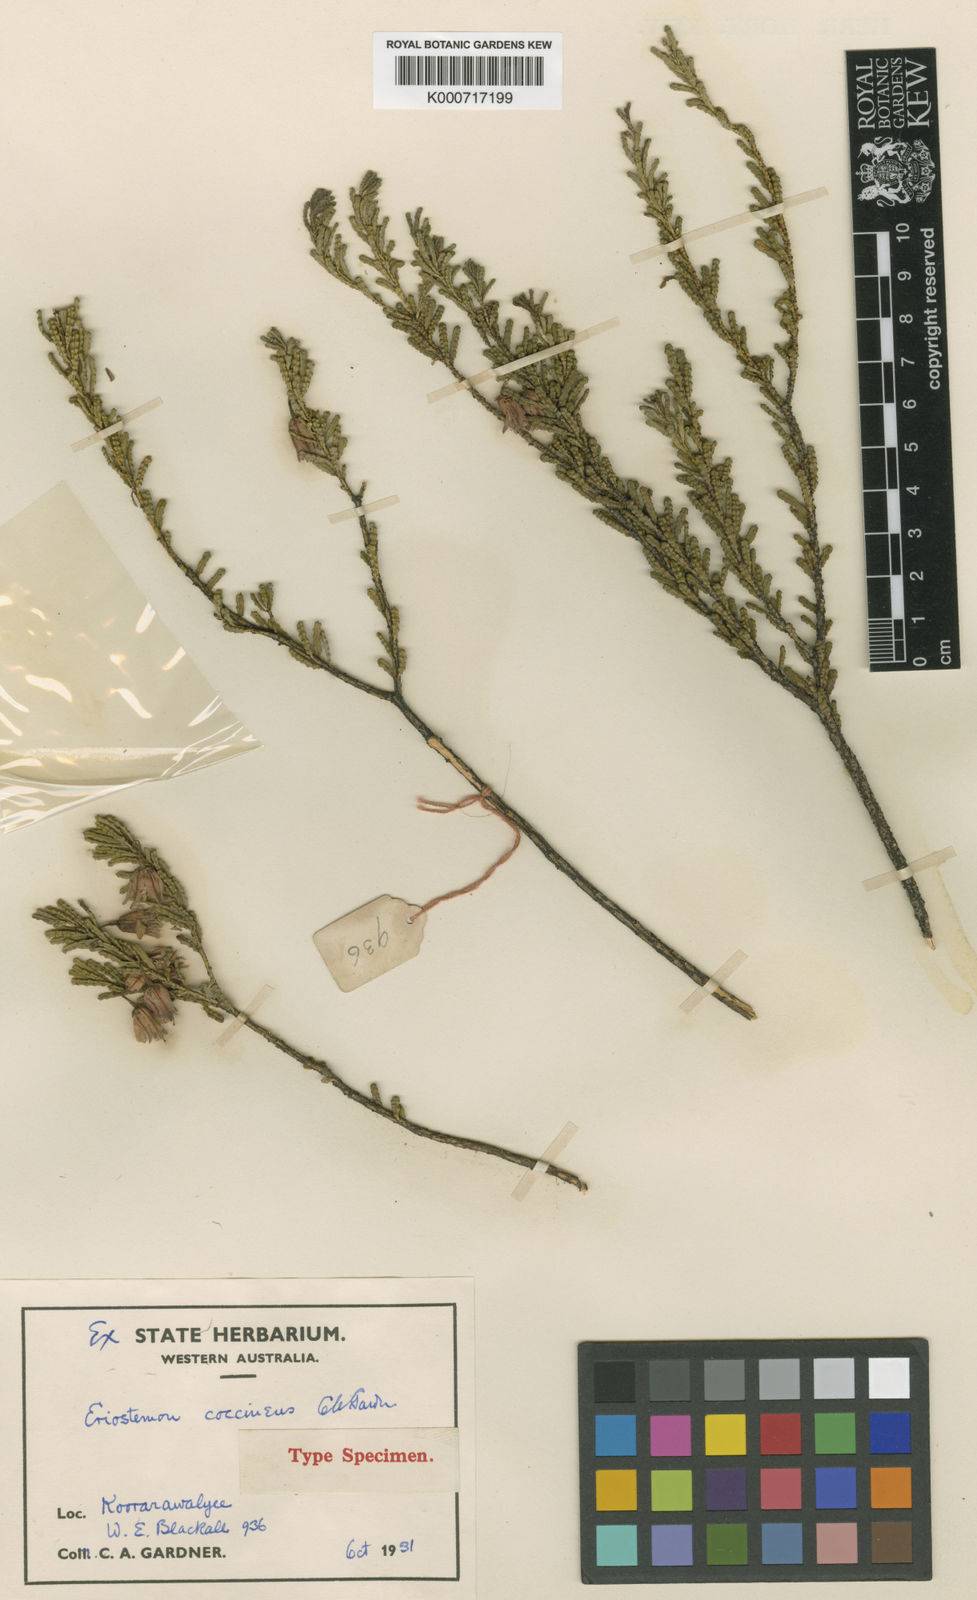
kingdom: Plantae
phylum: Tracheophyta
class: Magnoliopsida
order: Sapindales
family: Rutaceae
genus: Philotheca
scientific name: Philotheca coccinea
